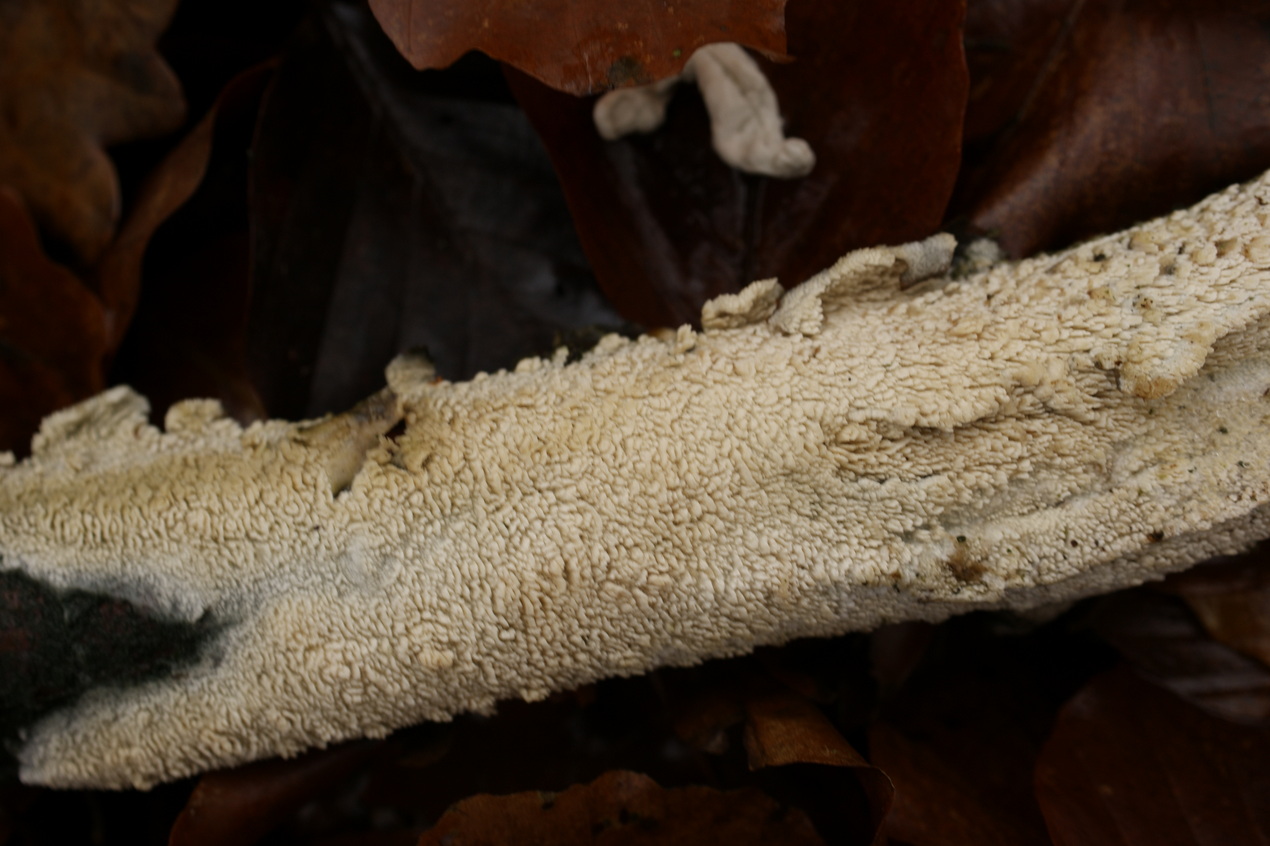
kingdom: Fungi
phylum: Basidiomycota
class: Agaricomycetes
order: Hymenochaetales
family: Schizoporaceae
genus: Schizopora
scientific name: Schizopora paradoxa
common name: hvid tandsvamp
